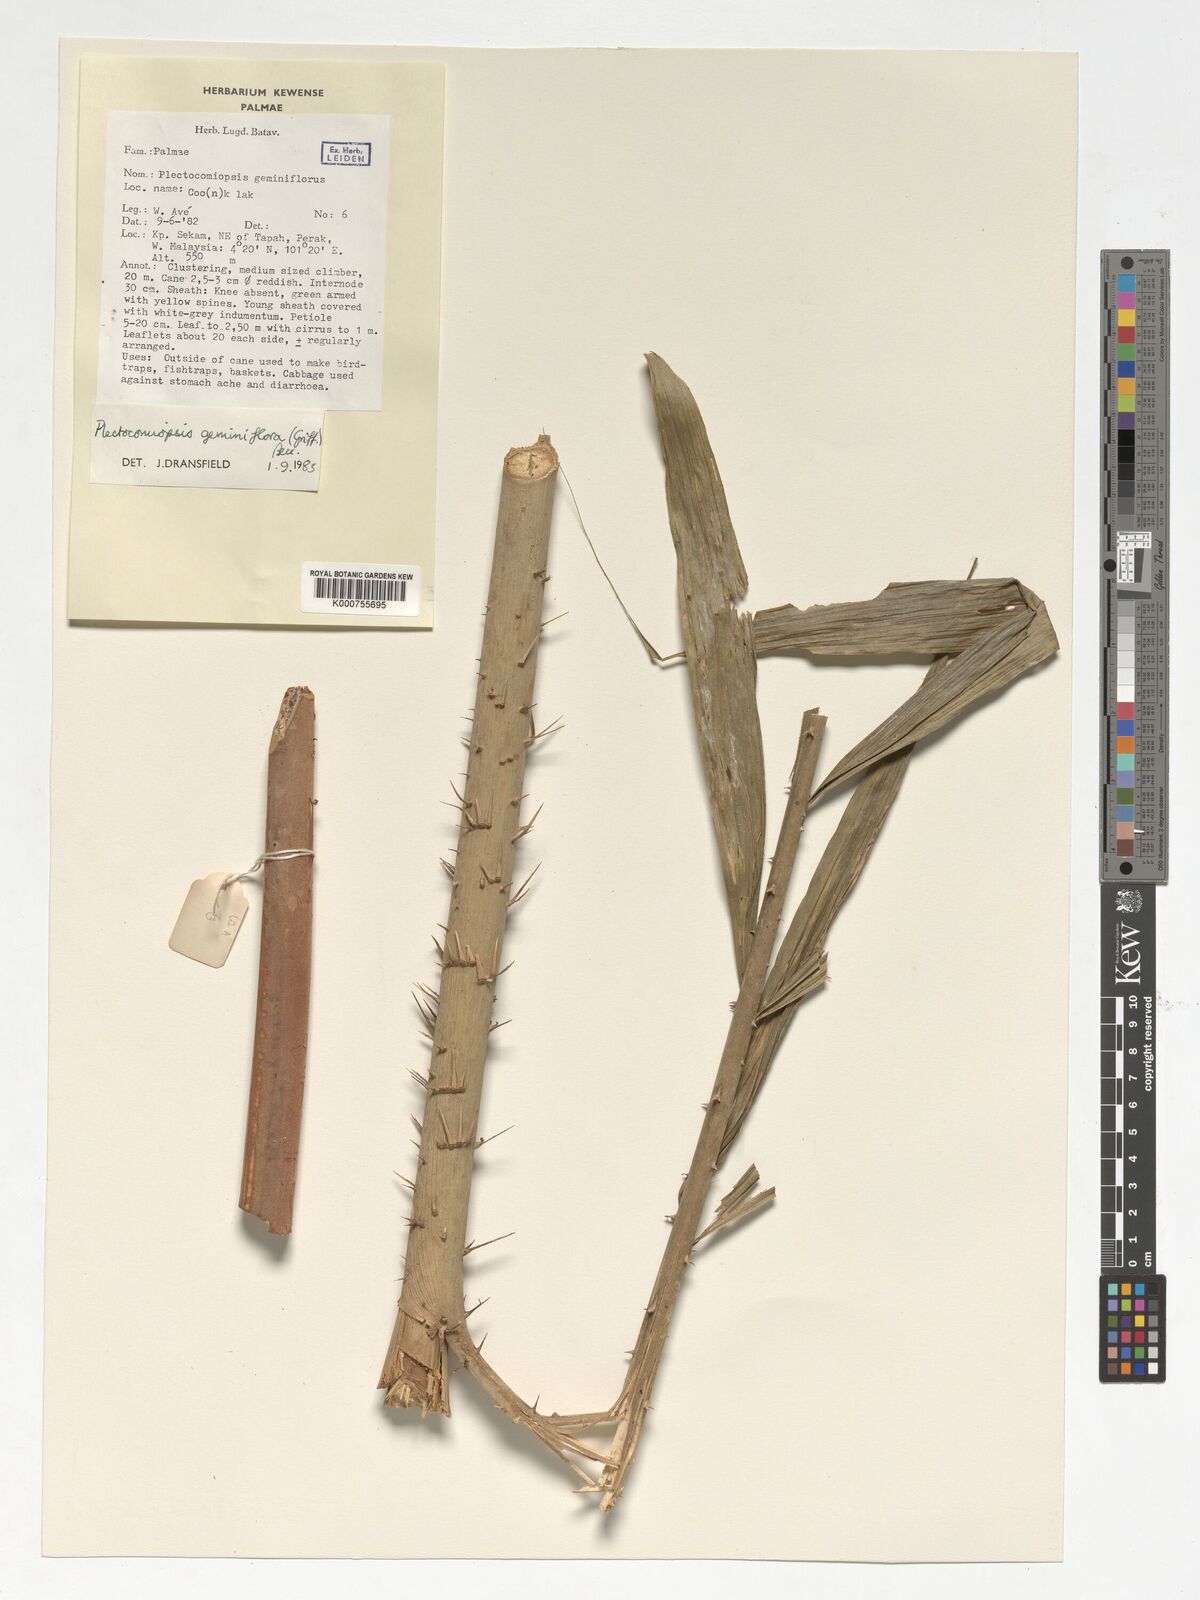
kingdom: Plantae
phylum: Tracheophyta
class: Liliopsida
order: Arecales
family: Arecaceae
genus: Plectocomiopsis
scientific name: Plectocomiopsis geminiflora
